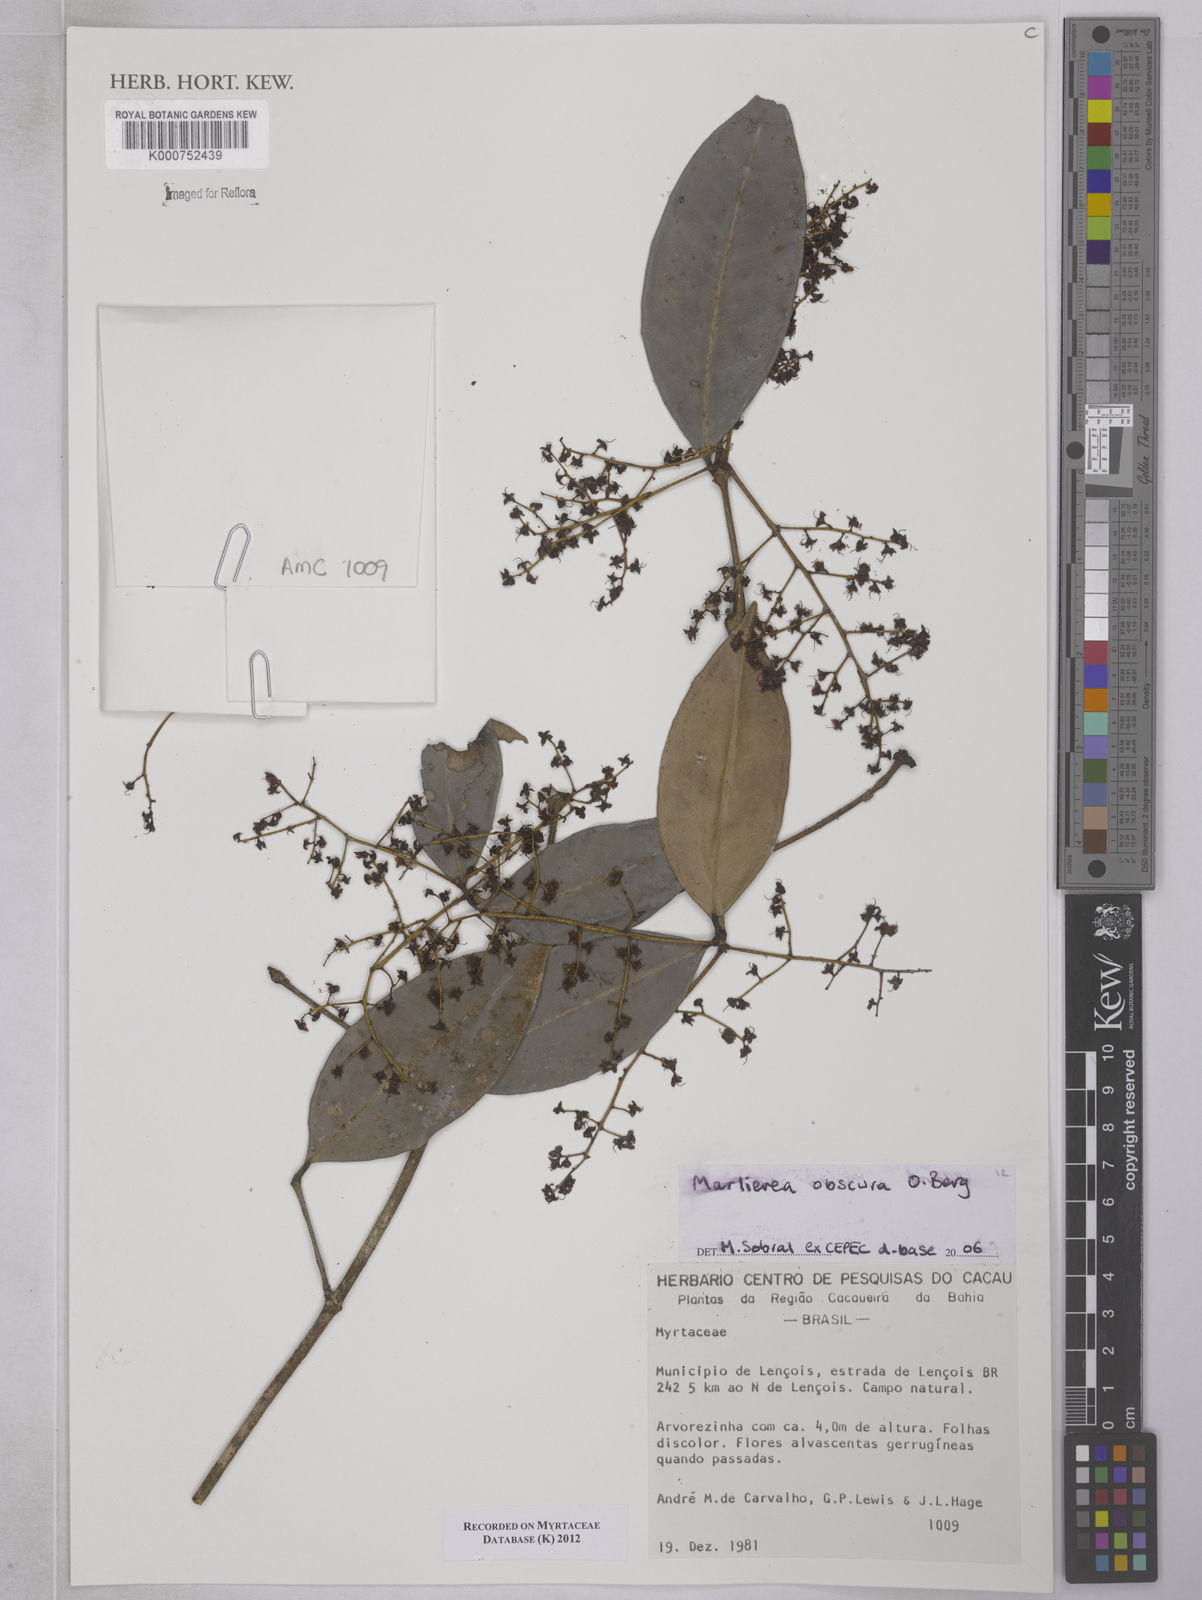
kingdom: Plantae
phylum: Tracheophyta
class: Magnoliopsida
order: Myrtales
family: Myrtaceae
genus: Myrcia
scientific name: Myrcia neoobscura
